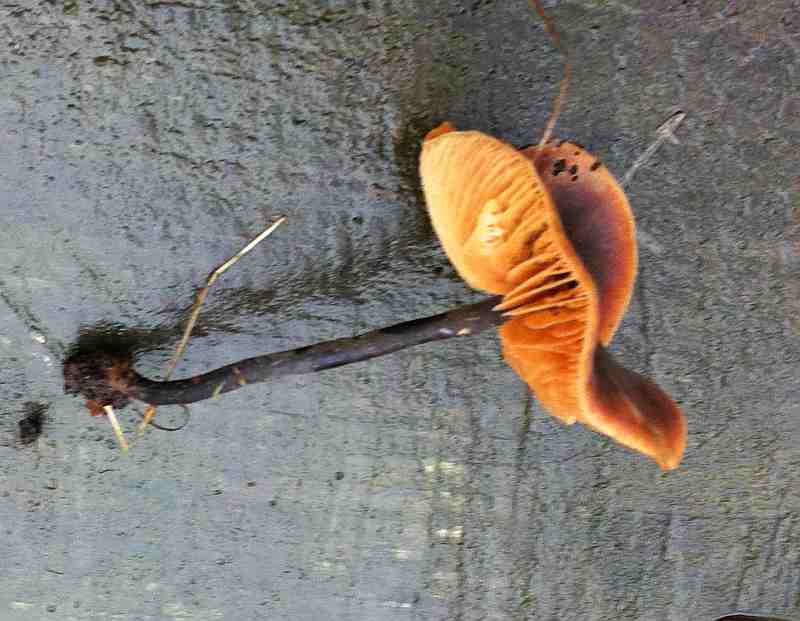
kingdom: Fungi
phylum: Basidiomycota
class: Agaricomycetes
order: Agaricales
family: Macrocystidiaceae
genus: Macrocystidia
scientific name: Macrocystidia cucumis
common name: agurkehat
